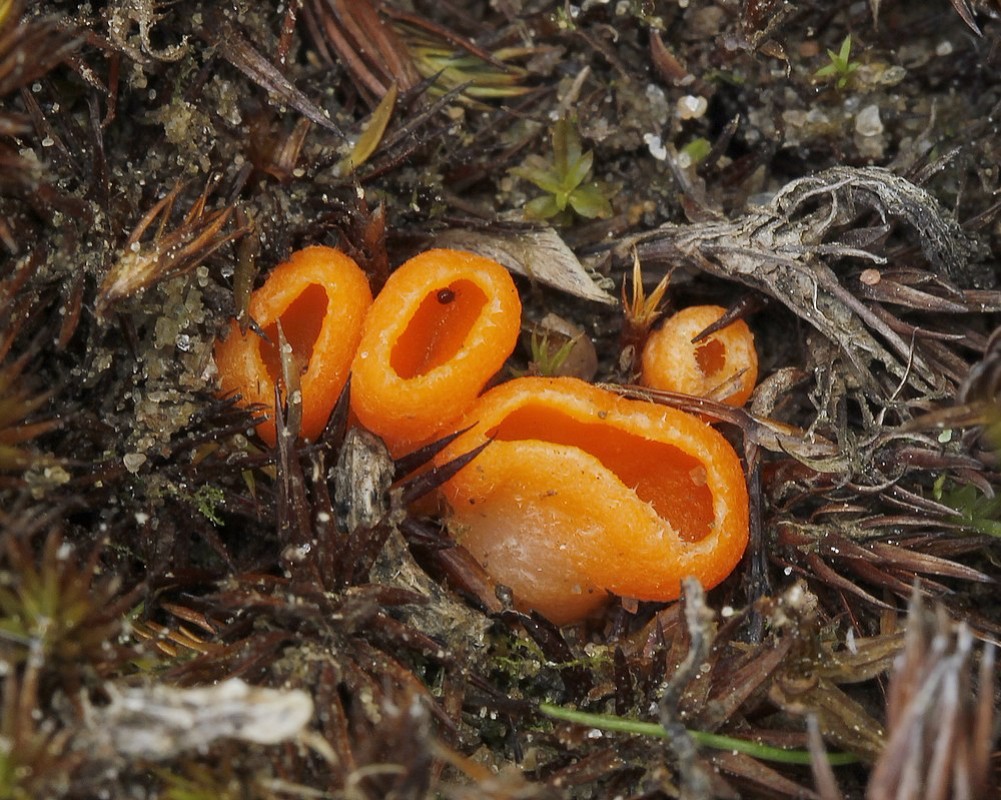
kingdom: Fungi
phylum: Ascomycota
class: Pezizomycetes
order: Pezizales
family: Pyronemataceae
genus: Neottiella
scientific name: Neottiella
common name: mosbæger
